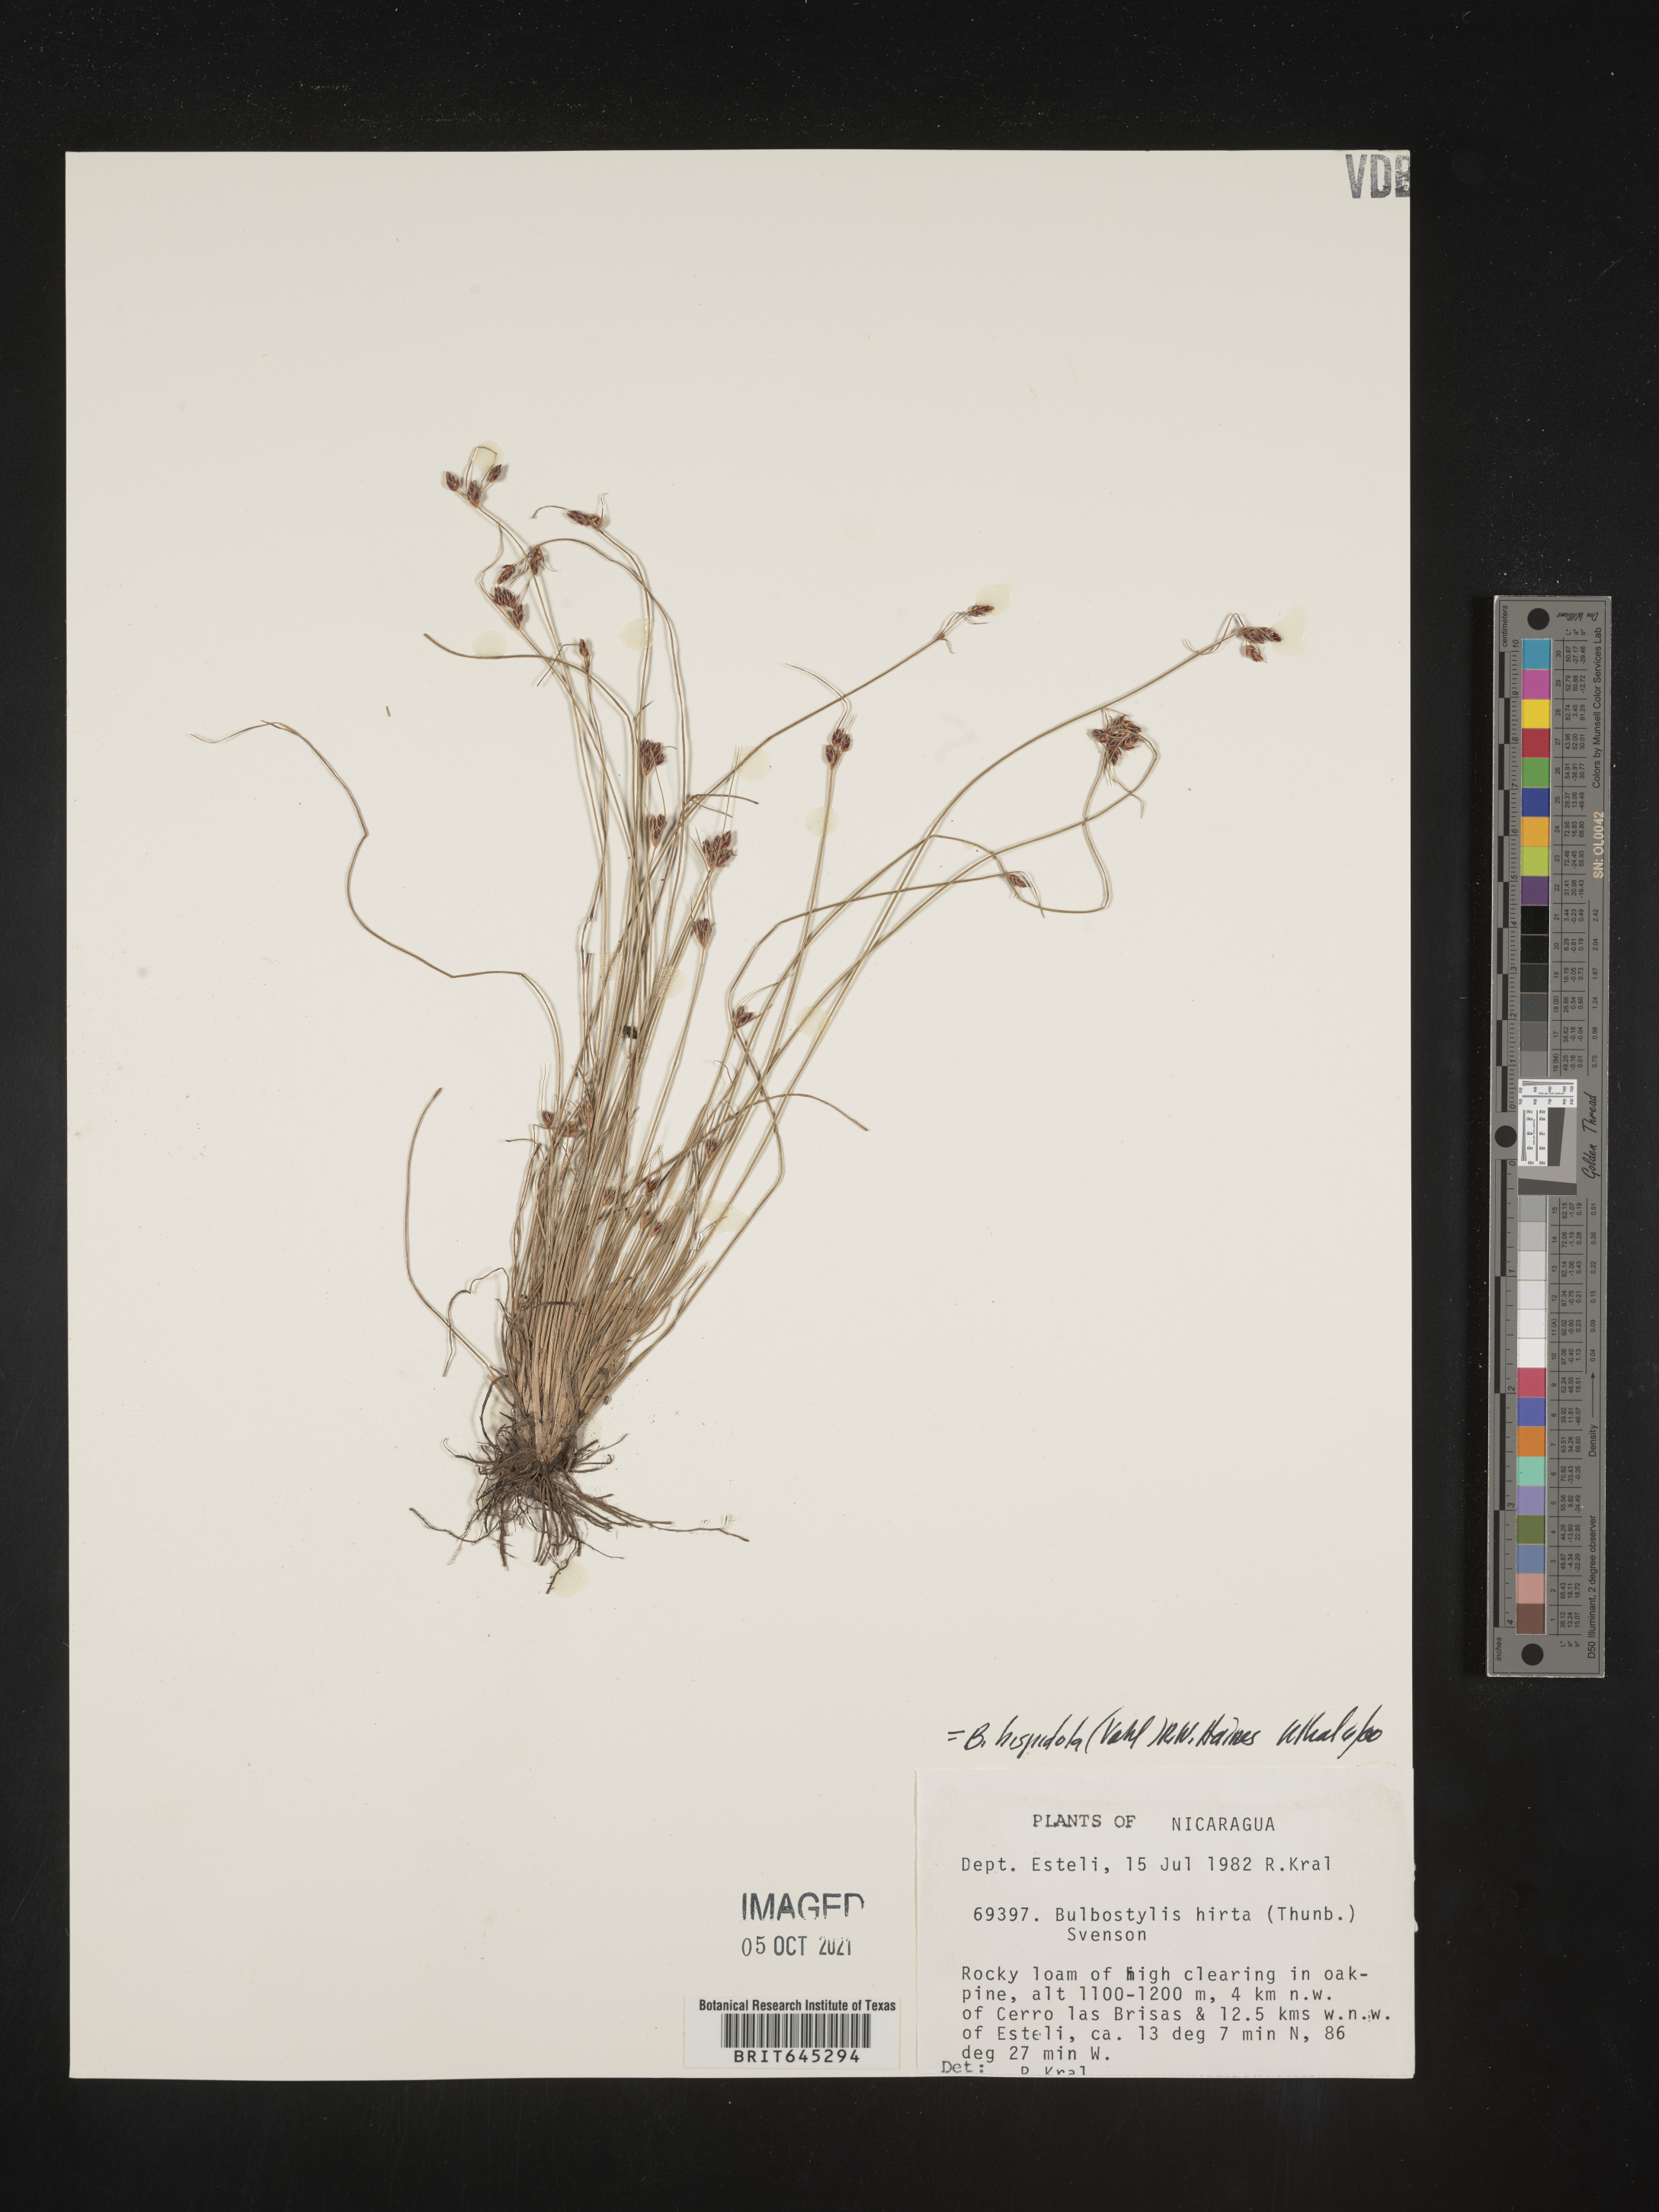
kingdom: Plantae
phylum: Tracheophyta
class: Liliopsida
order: Poales
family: Cyperaceae
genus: Bulbostylis
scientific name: Bulbostylis hispidula
